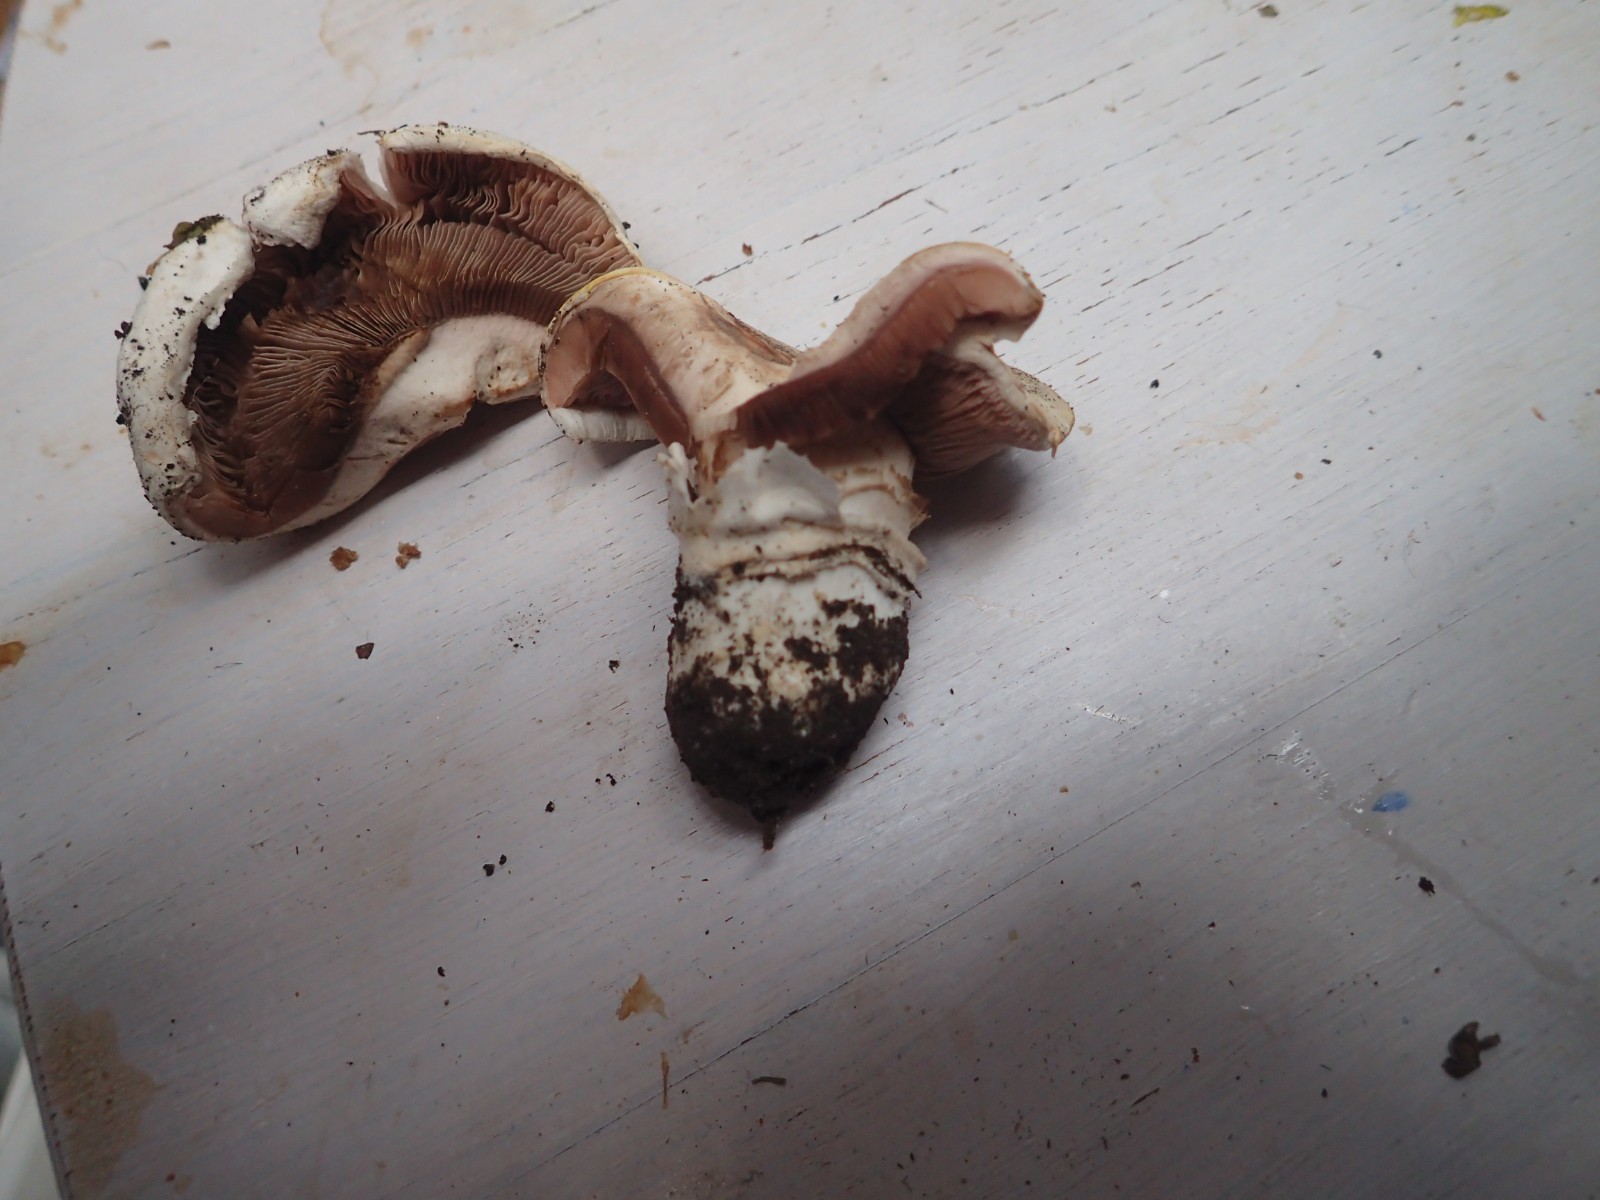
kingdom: Fungi
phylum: Basidiomycota
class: Agaricomycetes
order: Agaricales
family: Agaricaceae
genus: Agaricus
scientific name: Agaricus bitorquis
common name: vej-champignon
